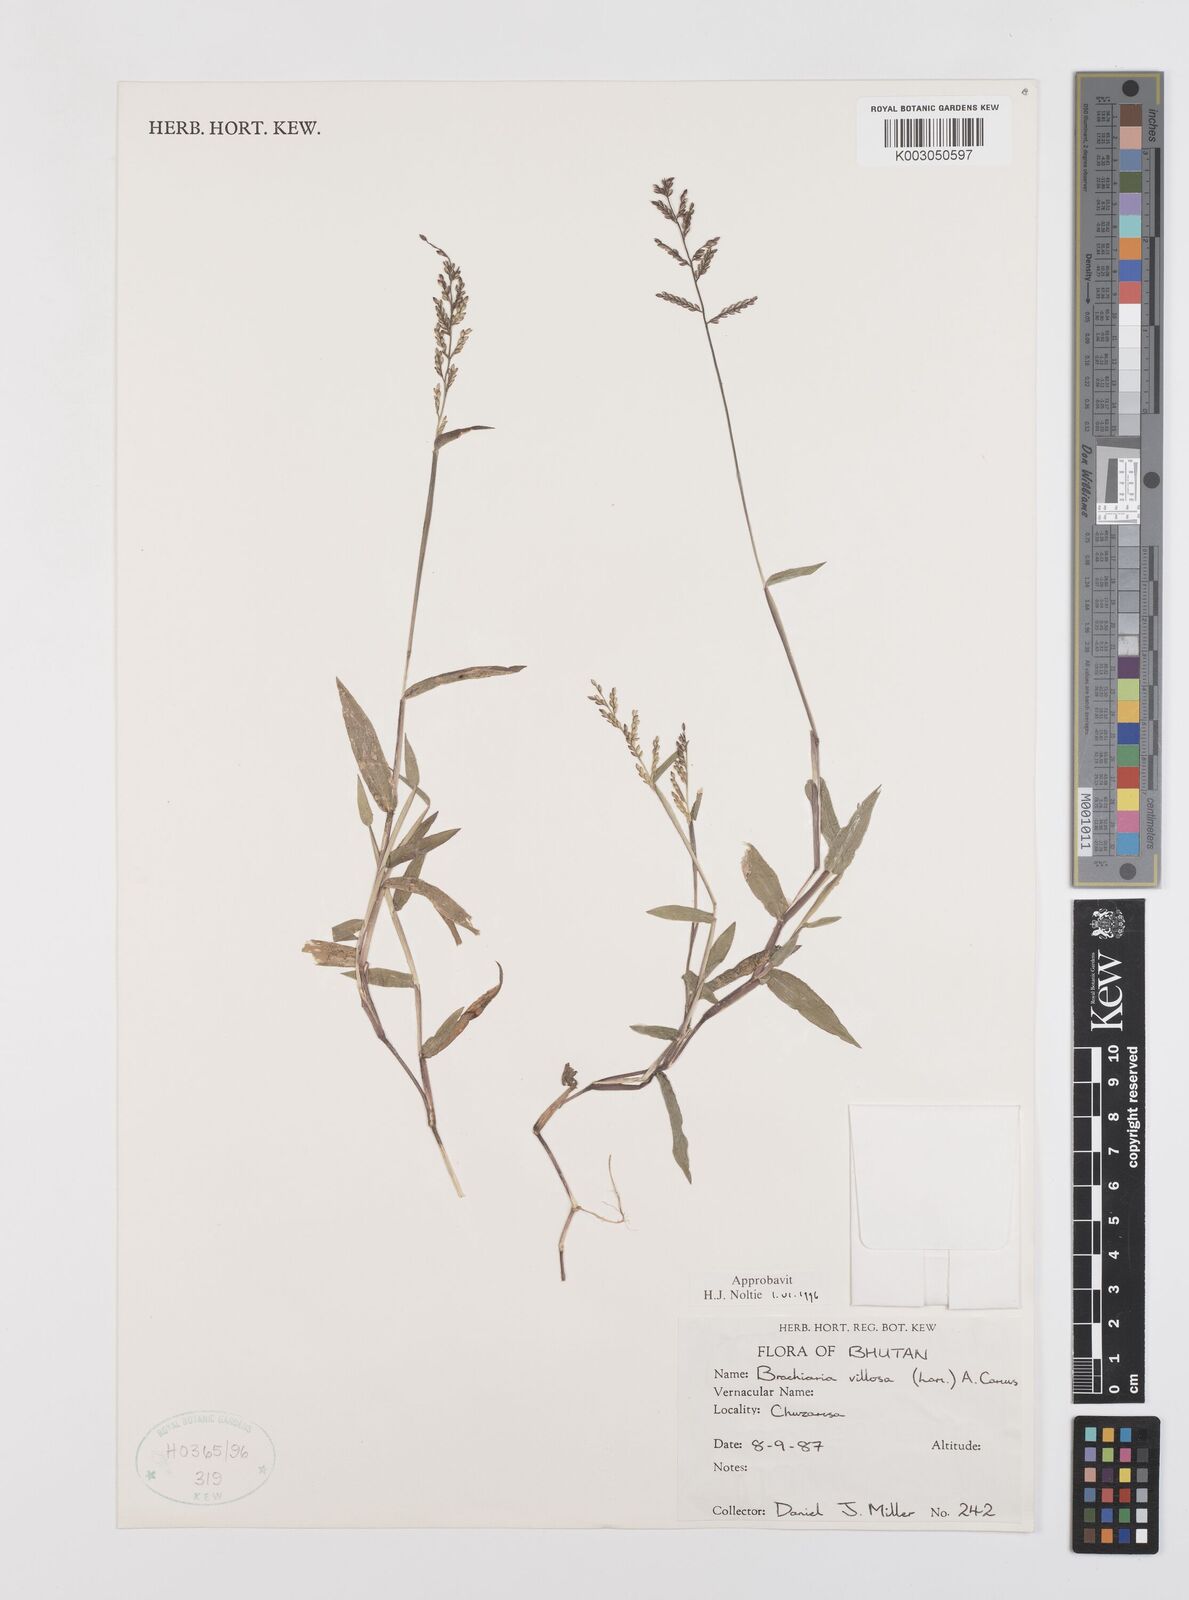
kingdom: Plantae
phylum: Tracheophyta
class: Liliopsida
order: Poales
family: Poaceae
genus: Urochloa
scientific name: Urochloa villosa
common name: Hairy signalgrass
